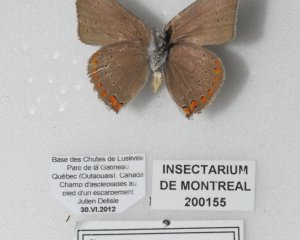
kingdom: Animalia
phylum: Arthropoda
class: Insecta
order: Lepidoptera
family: Lycaenidae
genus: Harkenclenus
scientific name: Harkenclenus titus
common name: Coral Hairstreak
